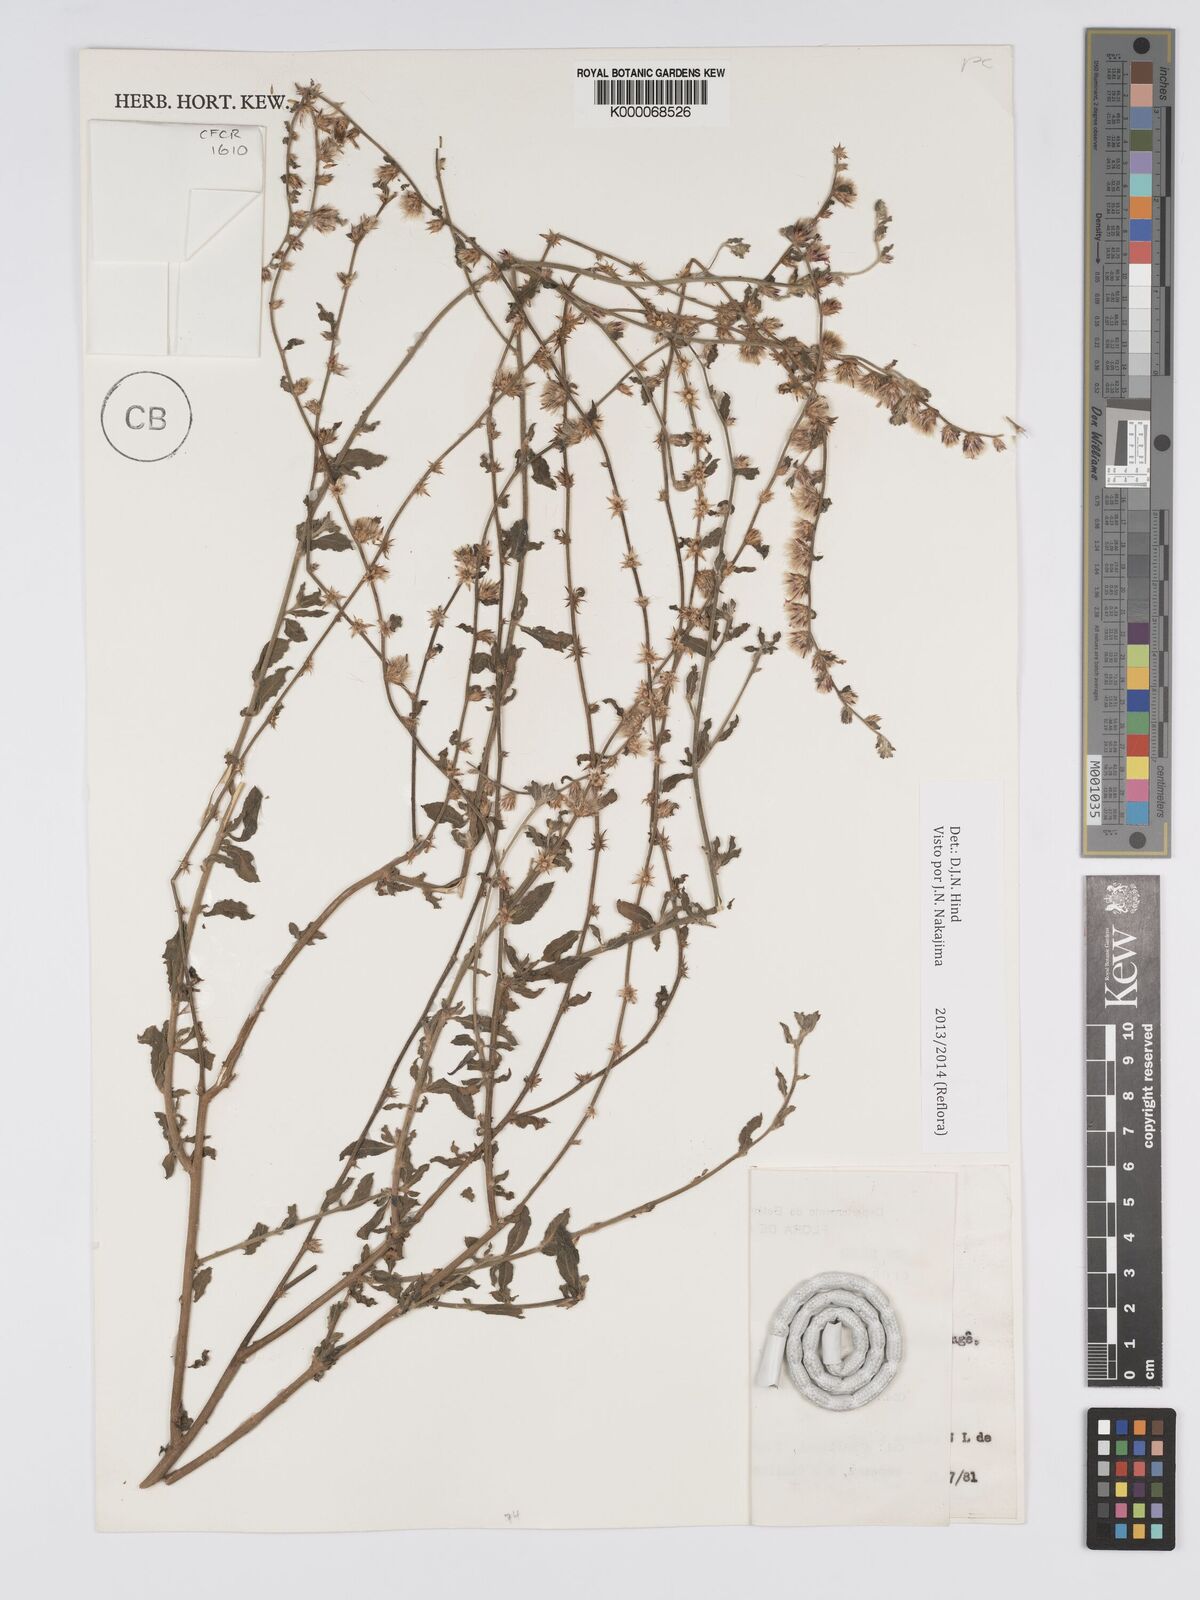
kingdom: Plantae
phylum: Tracheophyta
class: Magnoliopsida
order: Asterales
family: Asteraceae
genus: Lepidaploa
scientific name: Lepidaploa chalybaea
